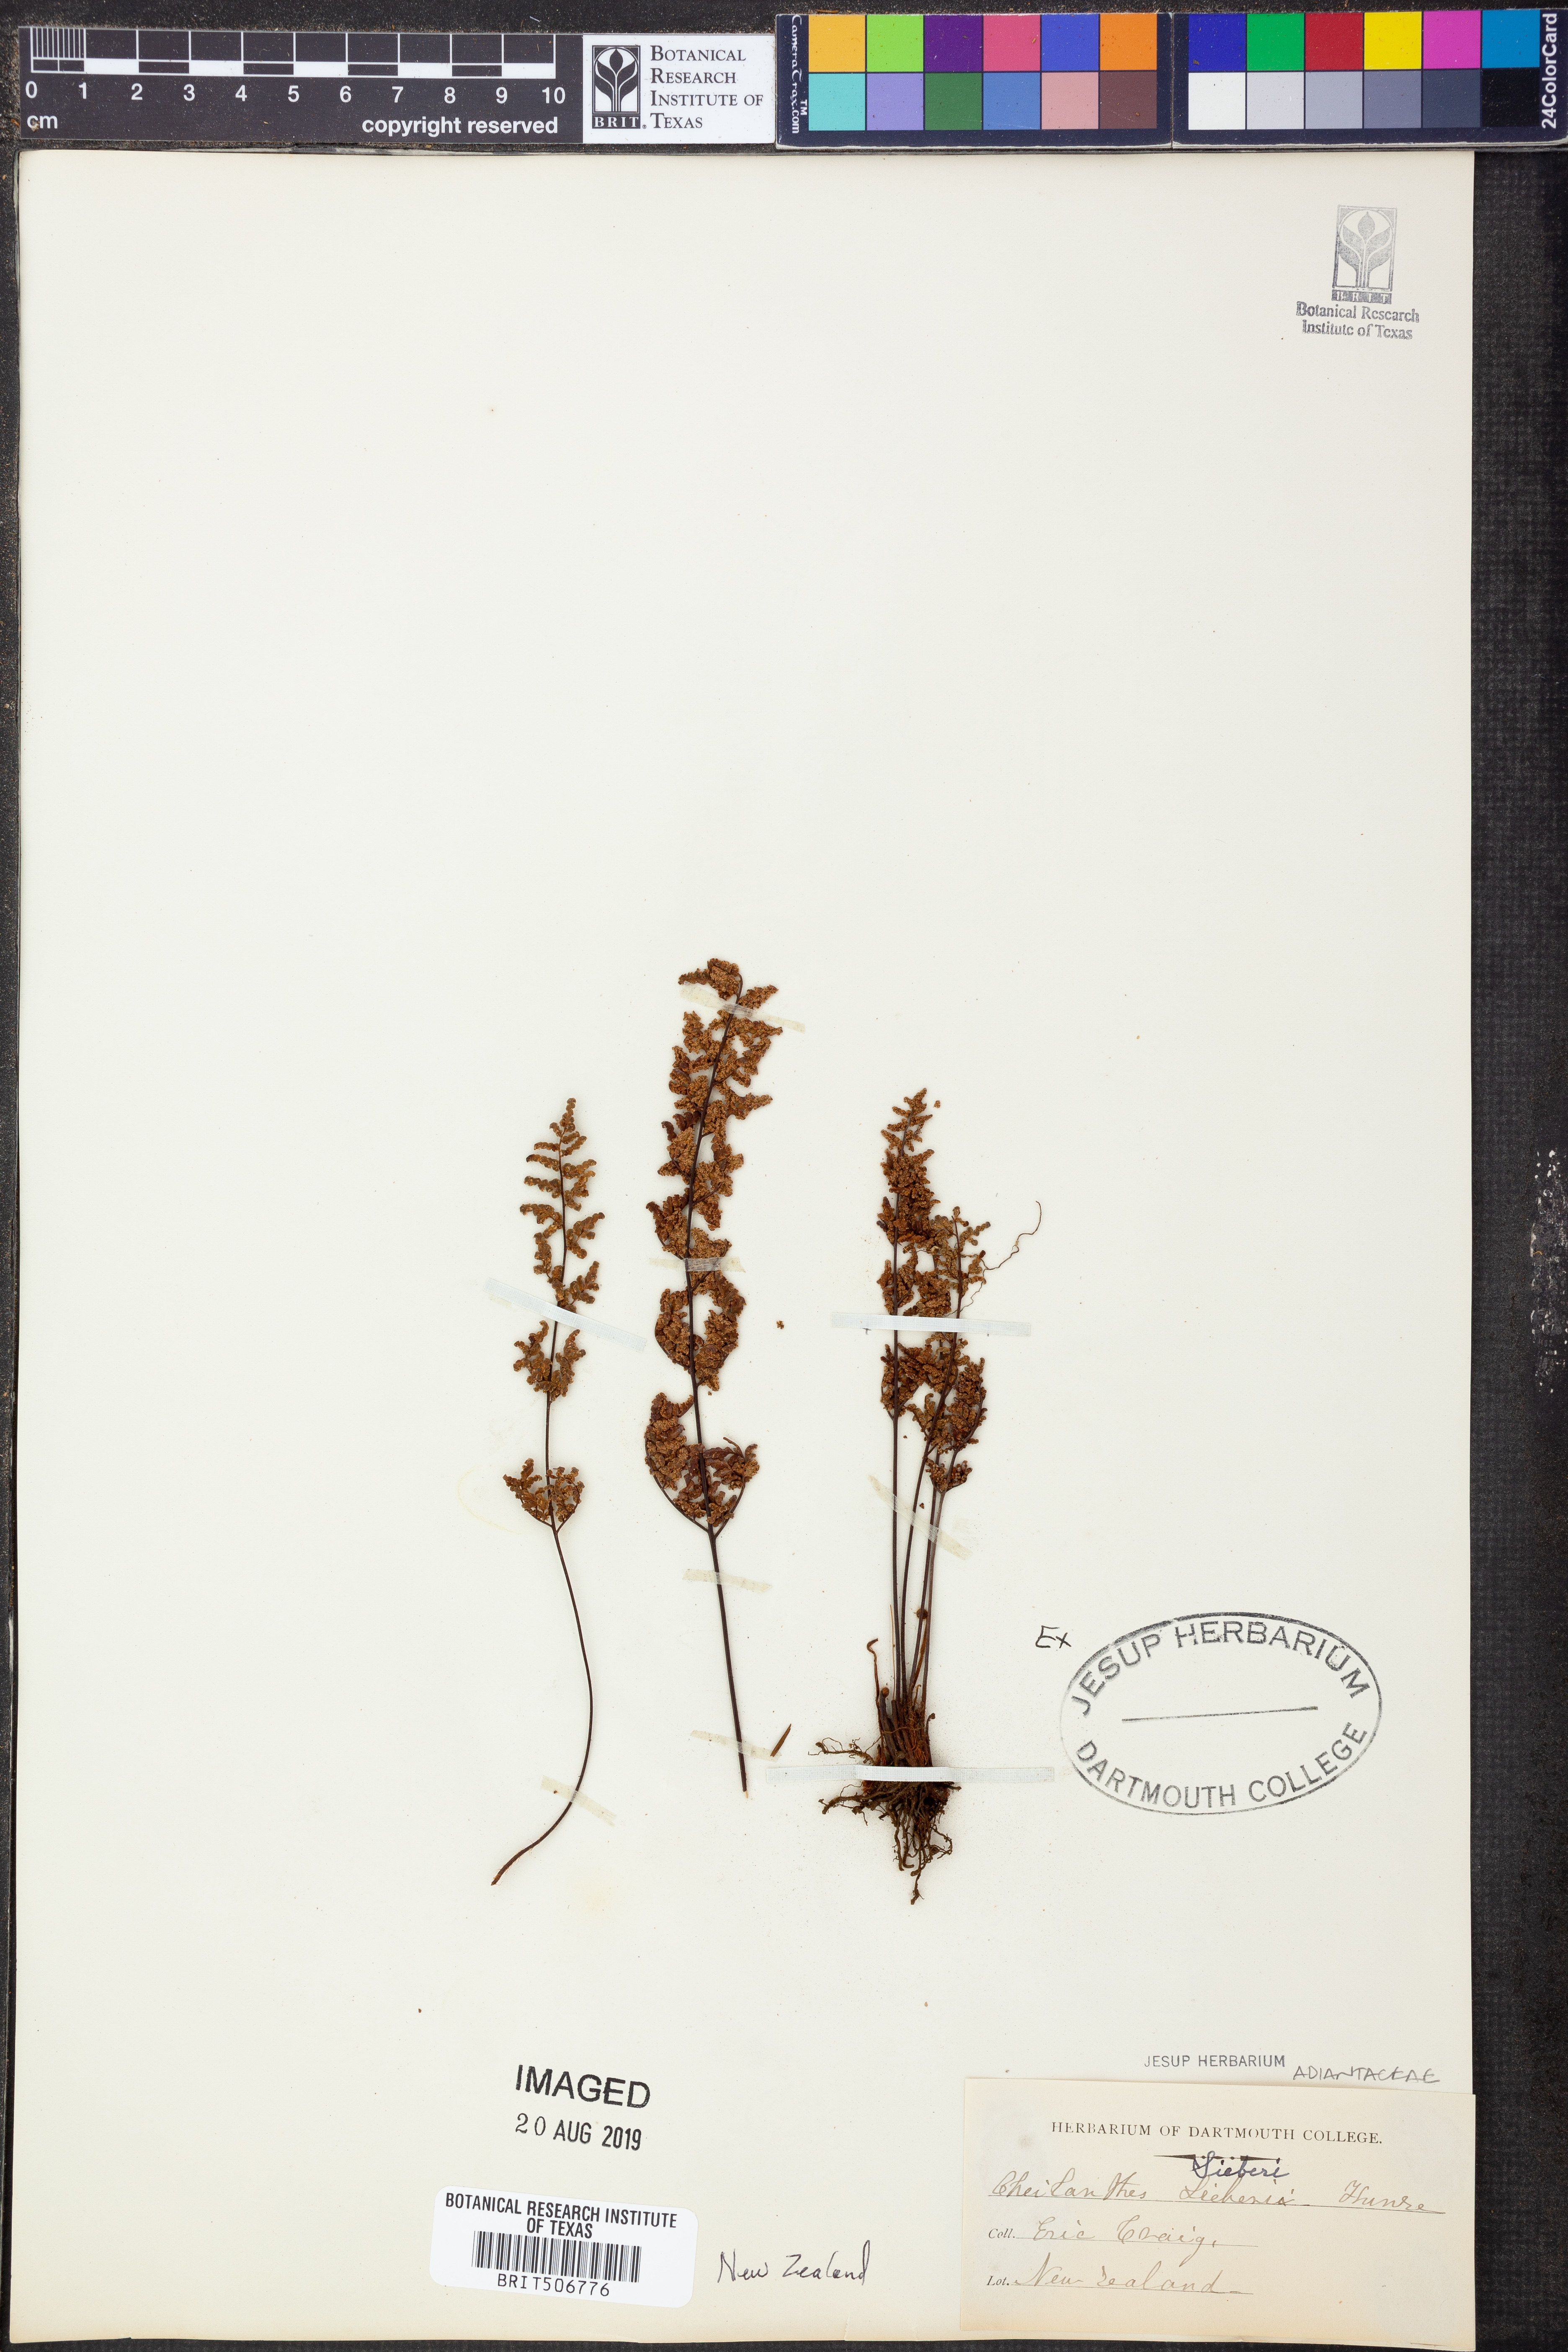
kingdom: Plantae
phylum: Tracheophyta
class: Polypodiopsida
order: Polypodiales
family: Pteridaceae
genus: Cheilanthes
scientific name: Cheilanthes sieberi
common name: Mulga fern
